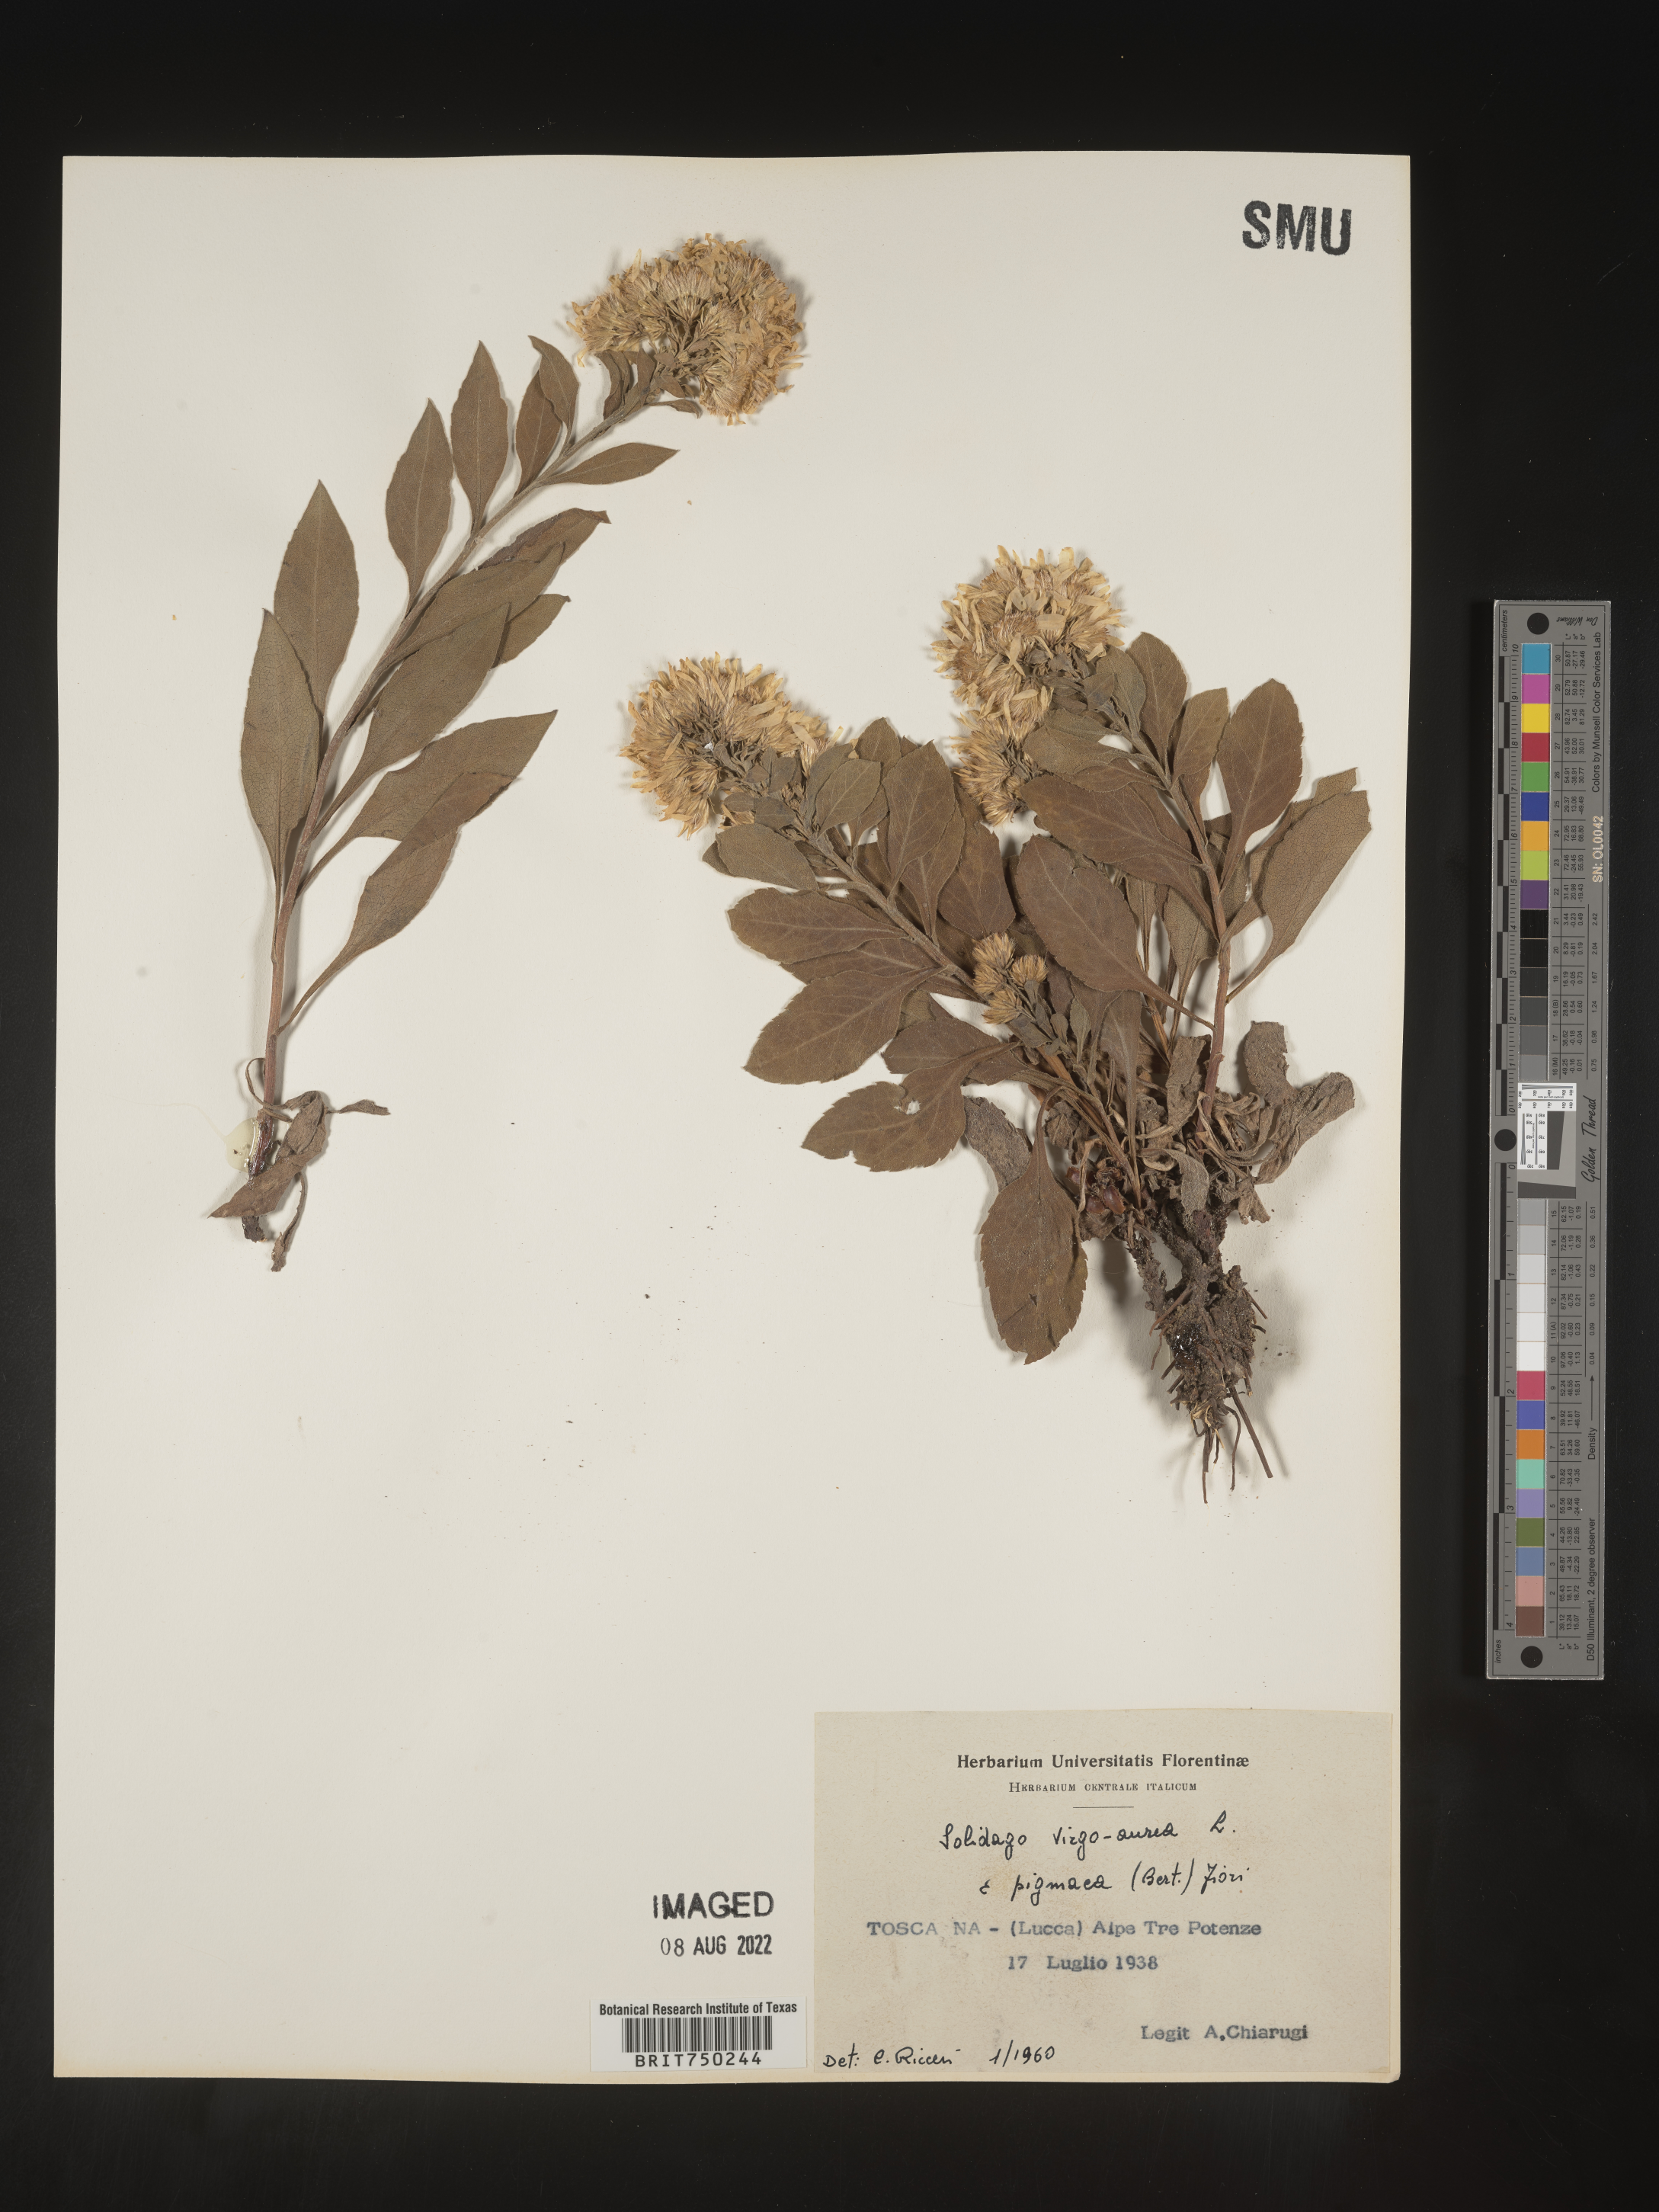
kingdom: Plantae
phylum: Tracheophyta
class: Magnoliopsida
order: Asterales
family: Asteraceae
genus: Solidago
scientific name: Solidago
